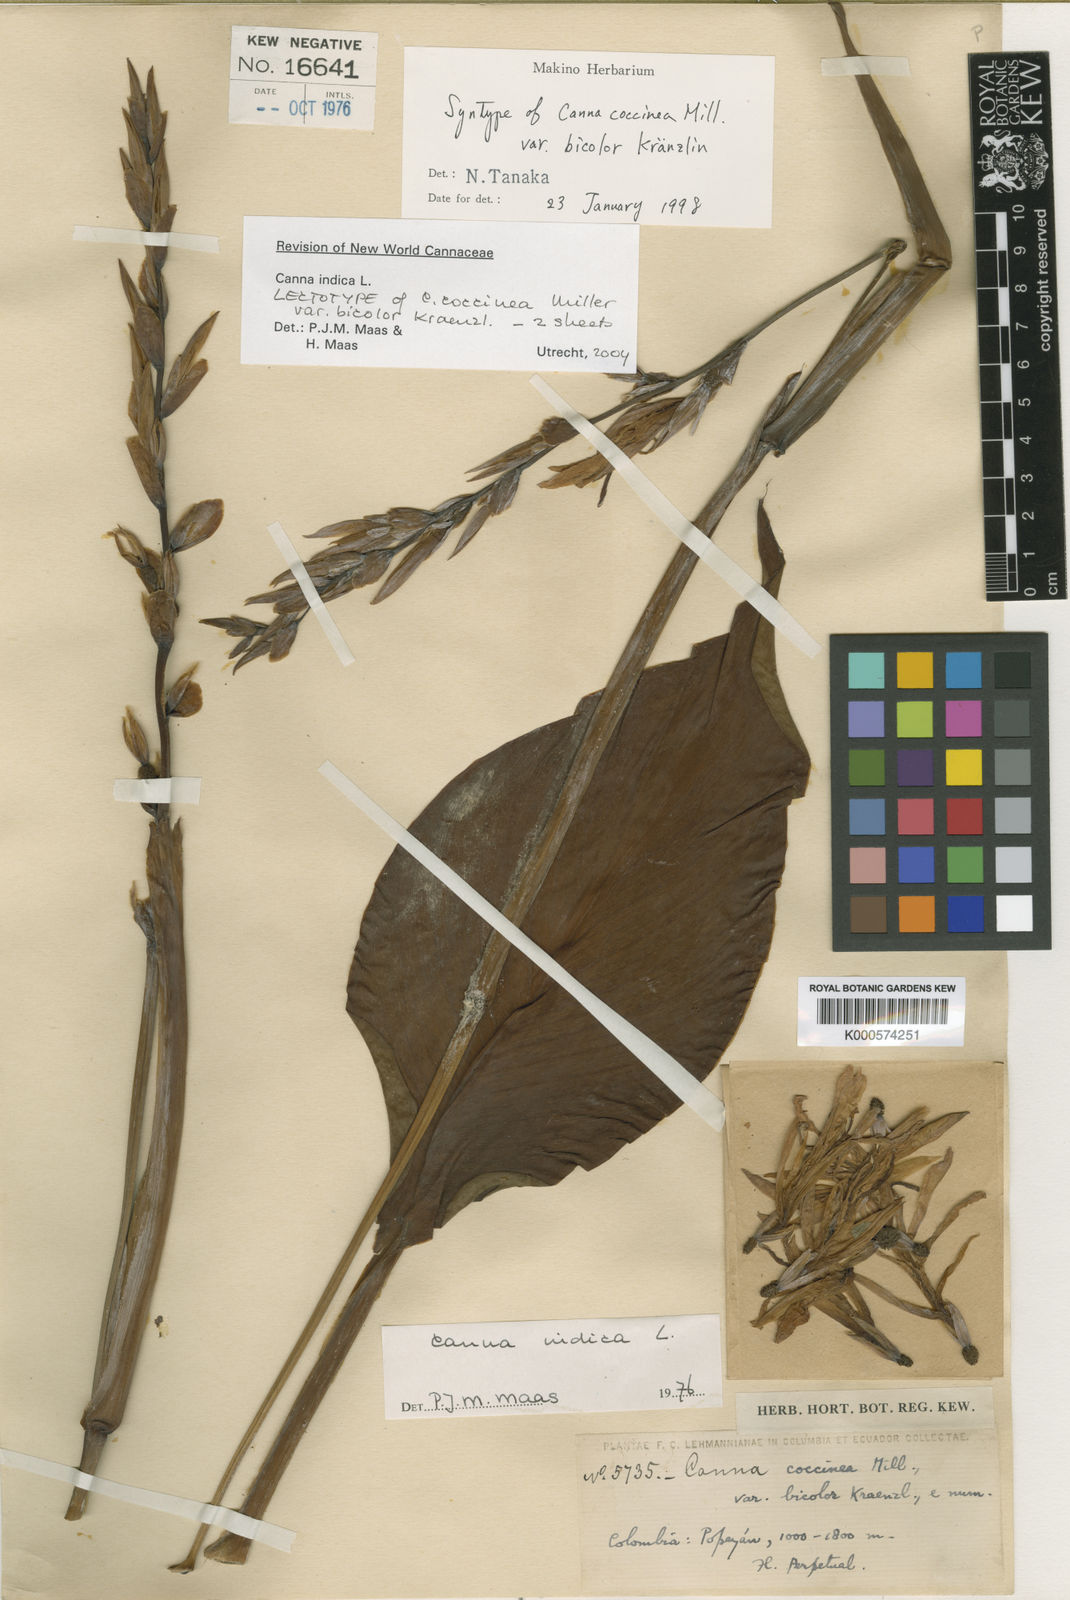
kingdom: Plantae
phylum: Tracheophyta
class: Liliopsida
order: Zingiberales
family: Cannaceae
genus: Canna
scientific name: Canna indica
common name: Indian shot
